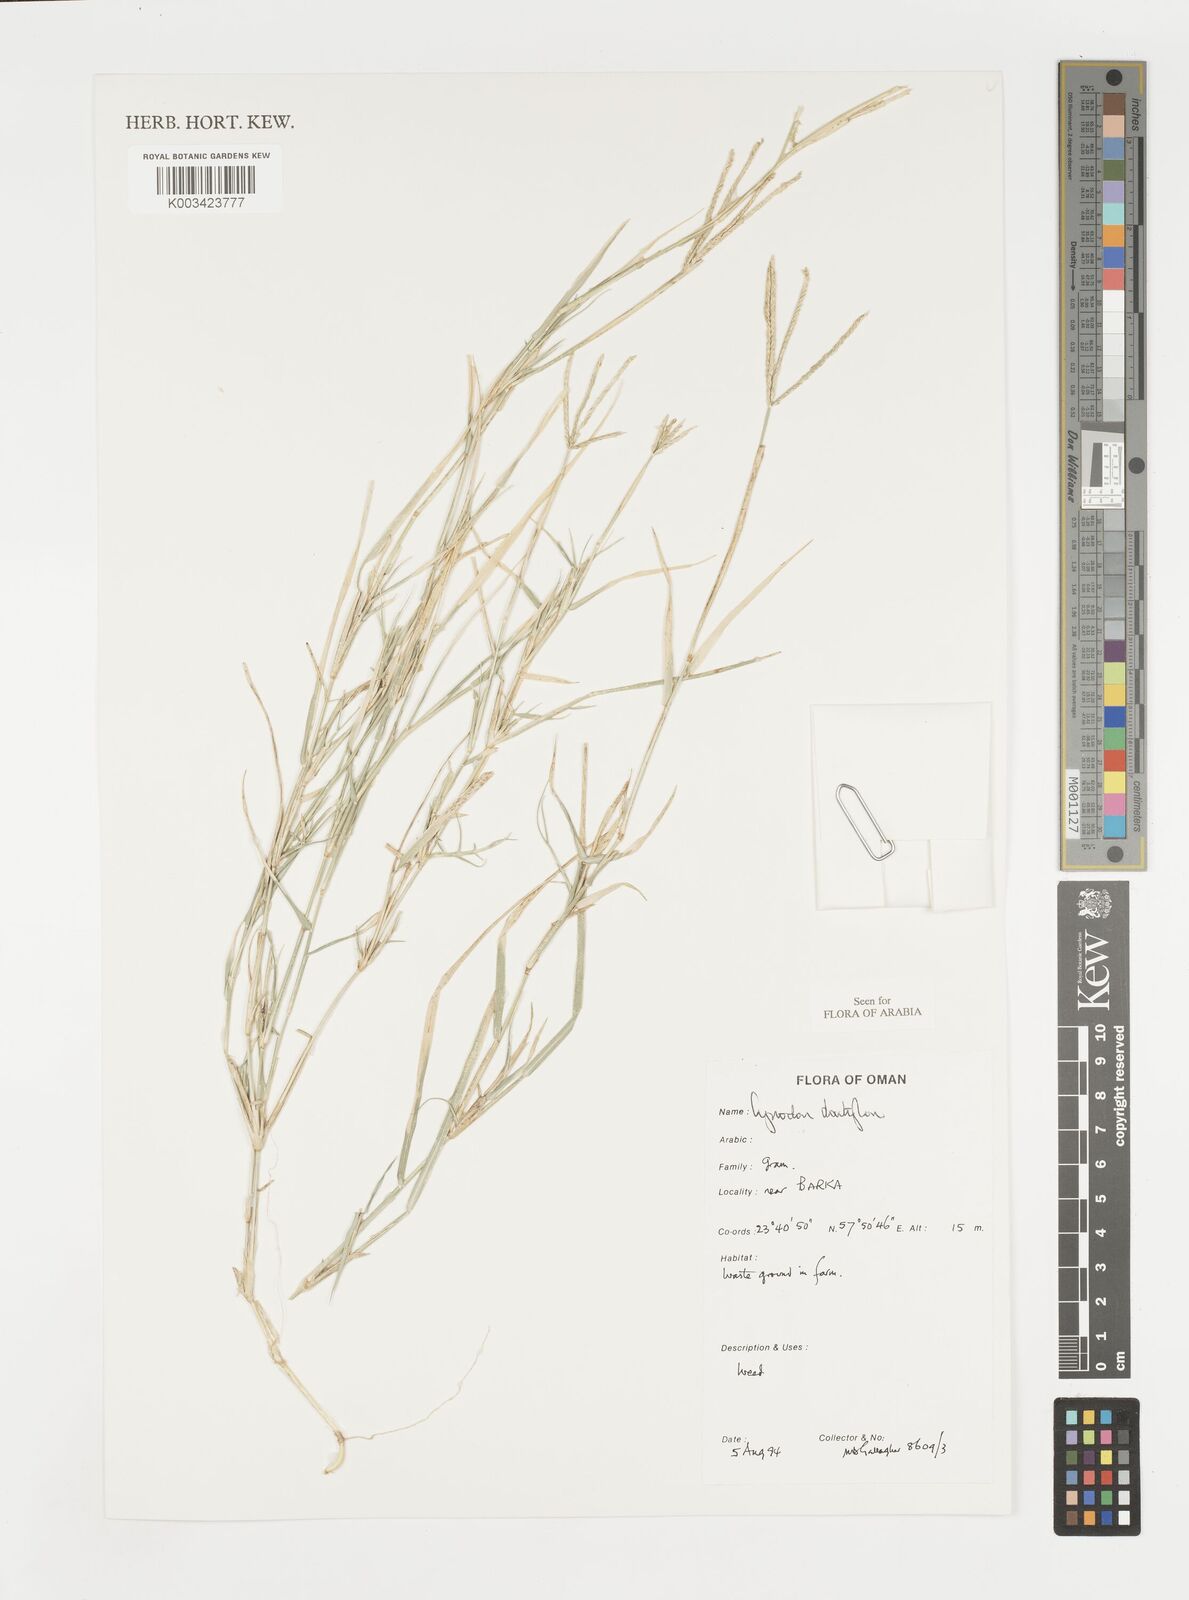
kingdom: Plantae
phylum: Tracheophyta
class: Liliopsida
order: Poales
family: Poaceae
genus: Cynodon
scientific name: Cynodon dactylon
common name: Bermuda grass
